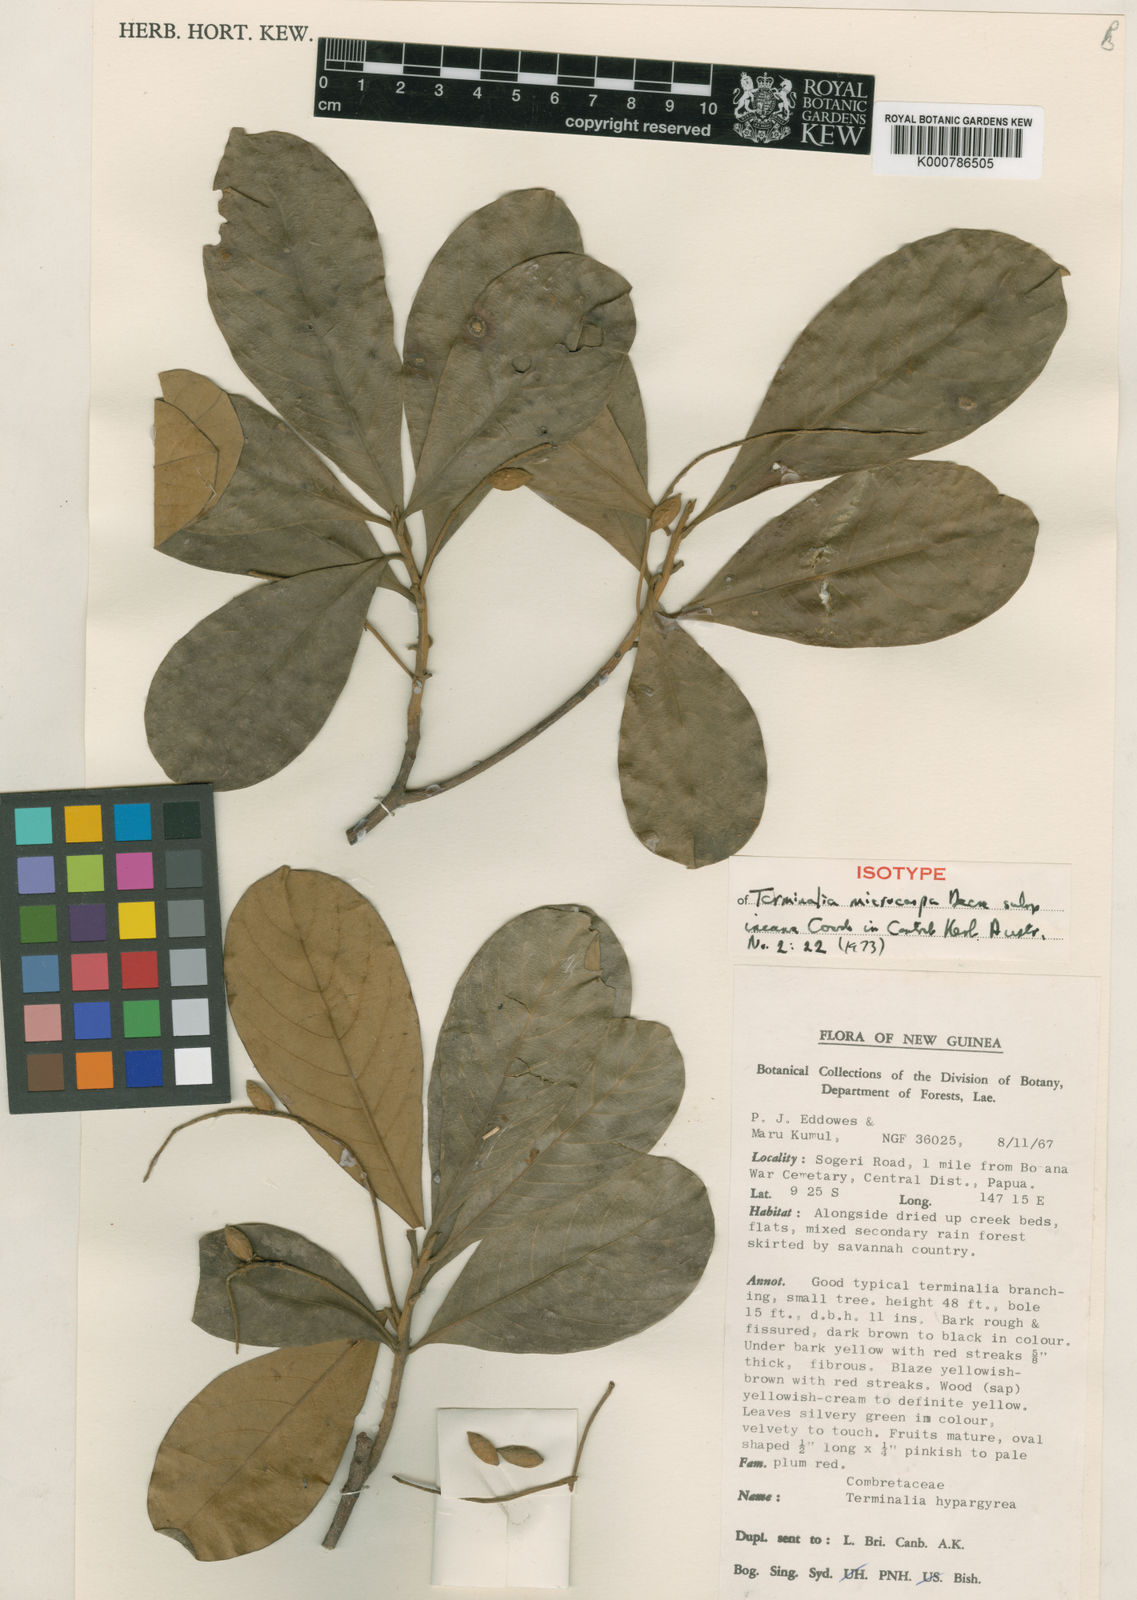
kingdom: Plantae
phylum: Tracheophyta
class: Magnoliopsida
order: Myrtales
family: Combretaceae
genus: Terminalia
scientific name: Terminalia microcarpa
